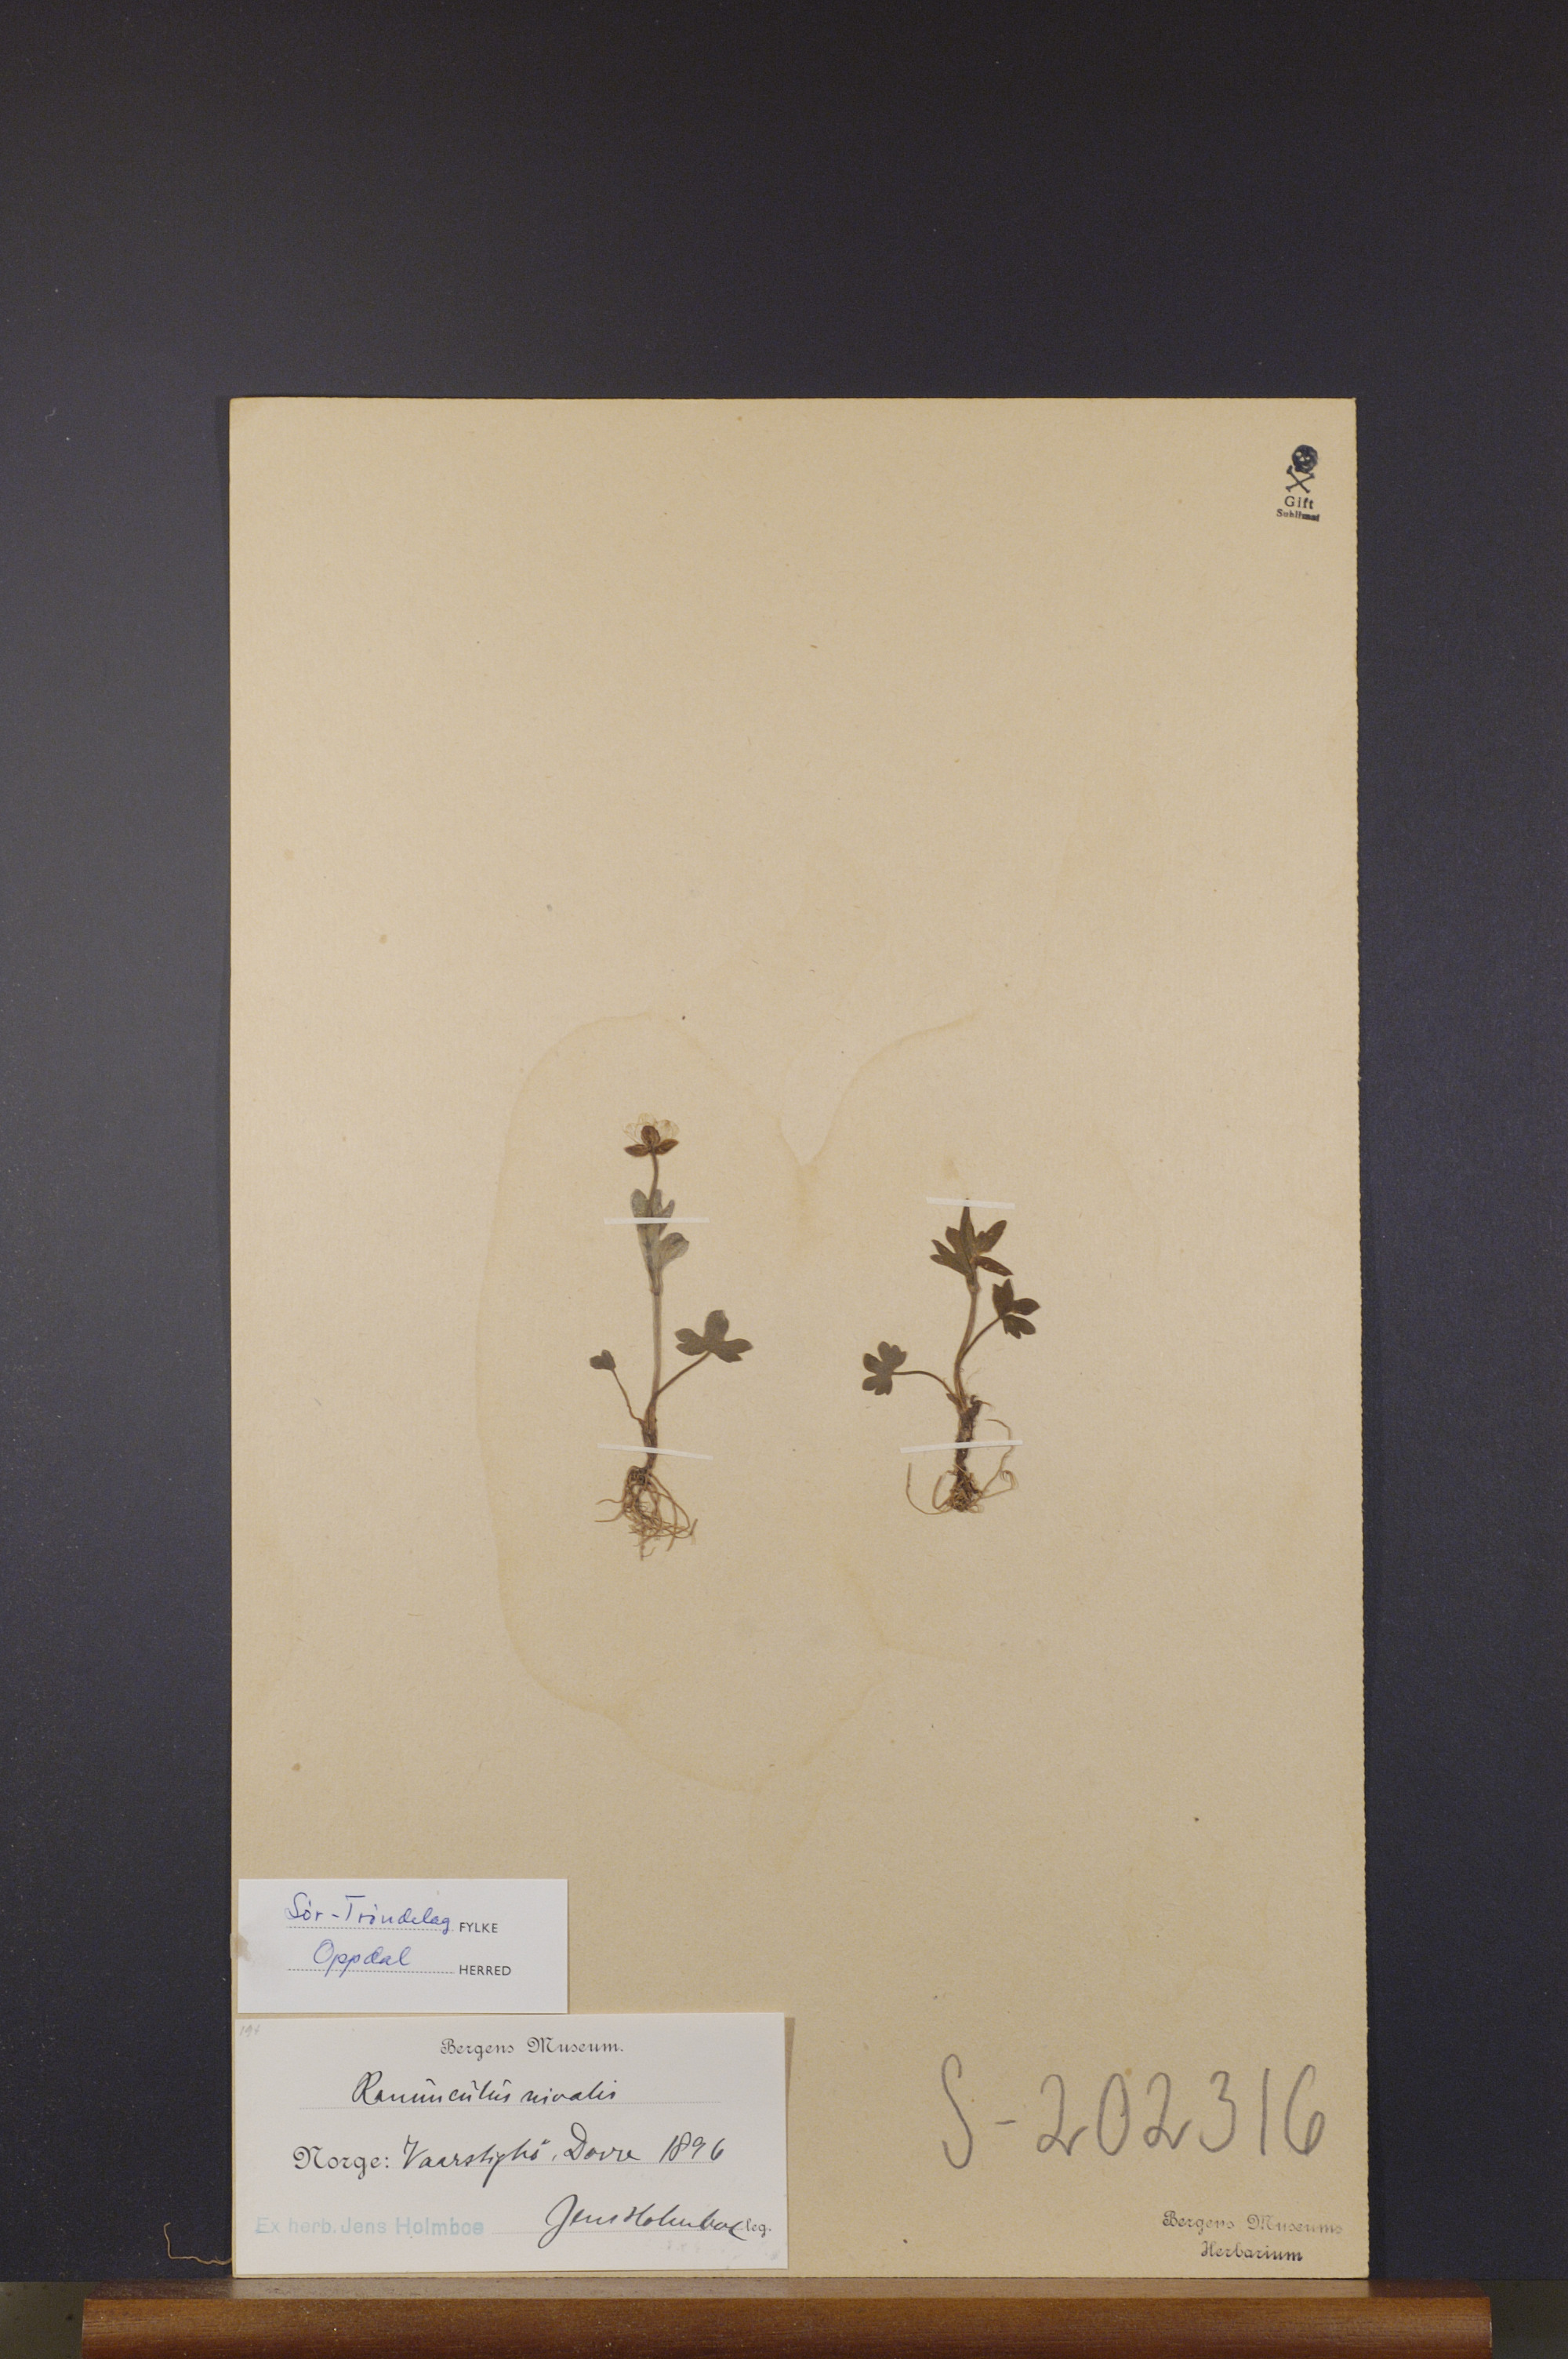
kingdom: Plantae
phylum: Tracheophyta
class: Magnoliopsida
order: Ranunculales
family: Ranunculaceae
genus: Ranunculus
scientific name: Ranunculus nivalis
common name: Snow buttercup
